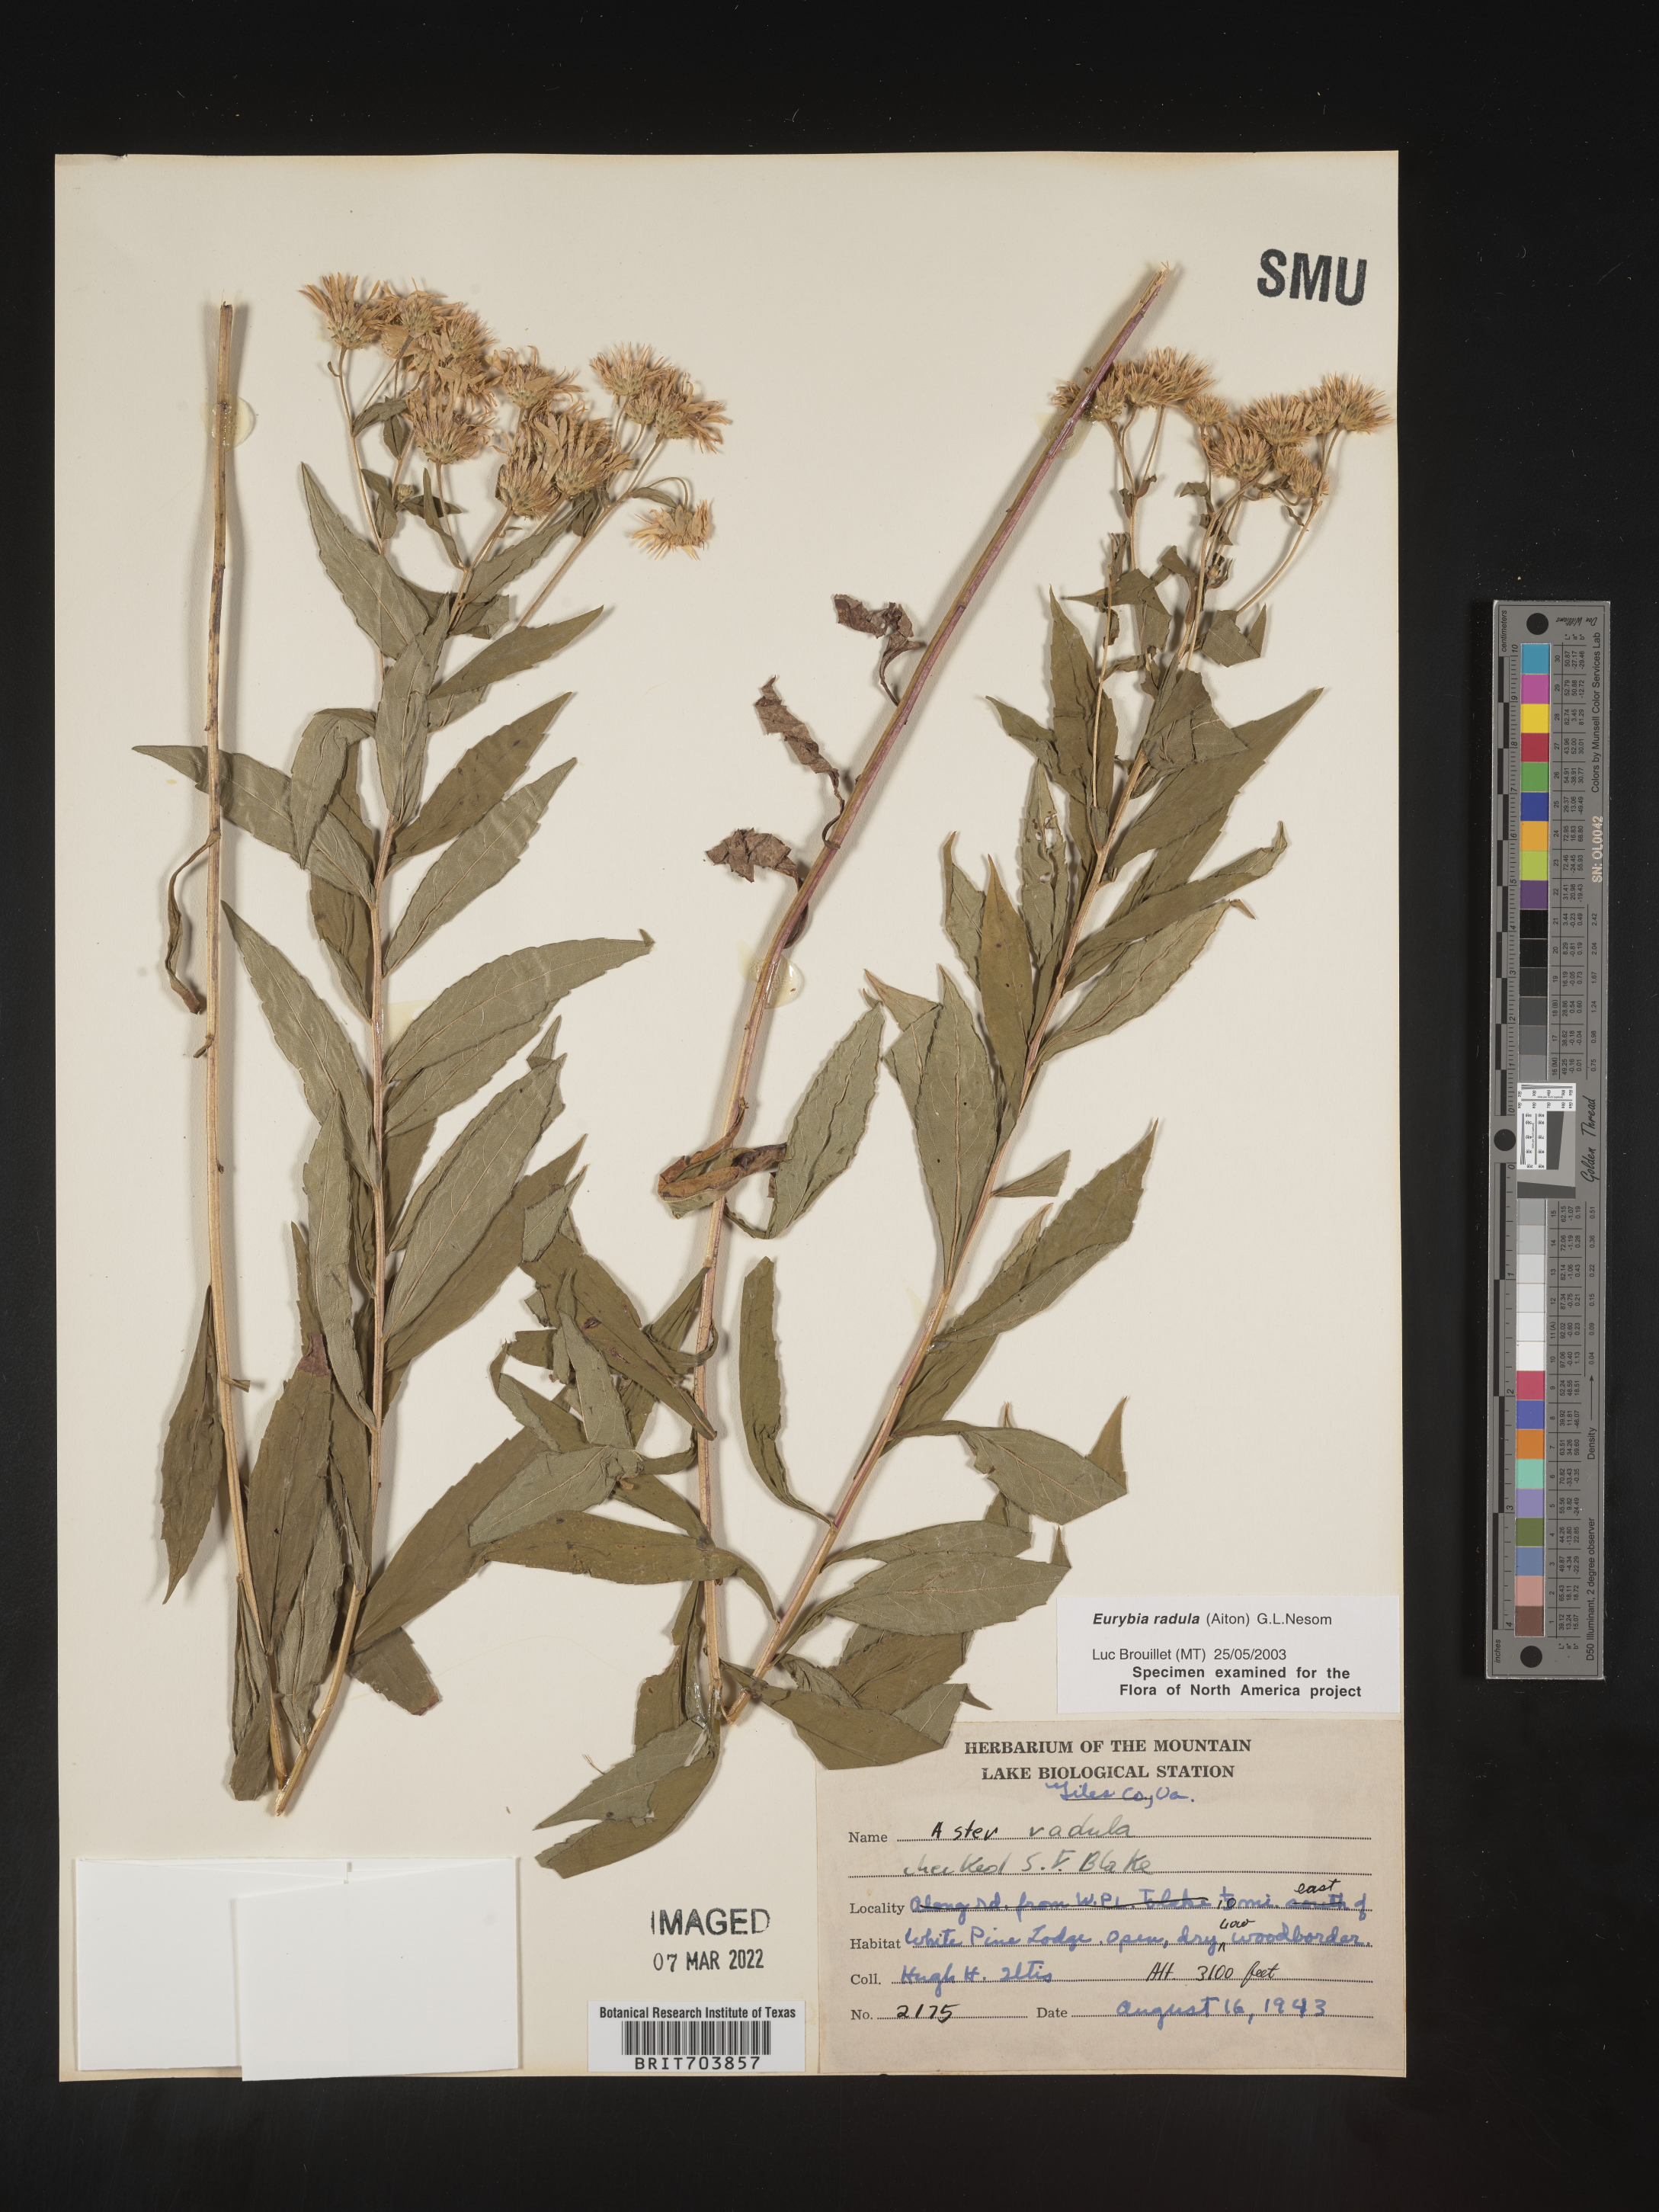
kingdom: Plantae
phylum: Tracheophyta
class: Magnoliopsida
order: Asterales
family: Asteraceae
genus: Eurybia
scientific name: Eurybia radula
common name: Low rough aster
